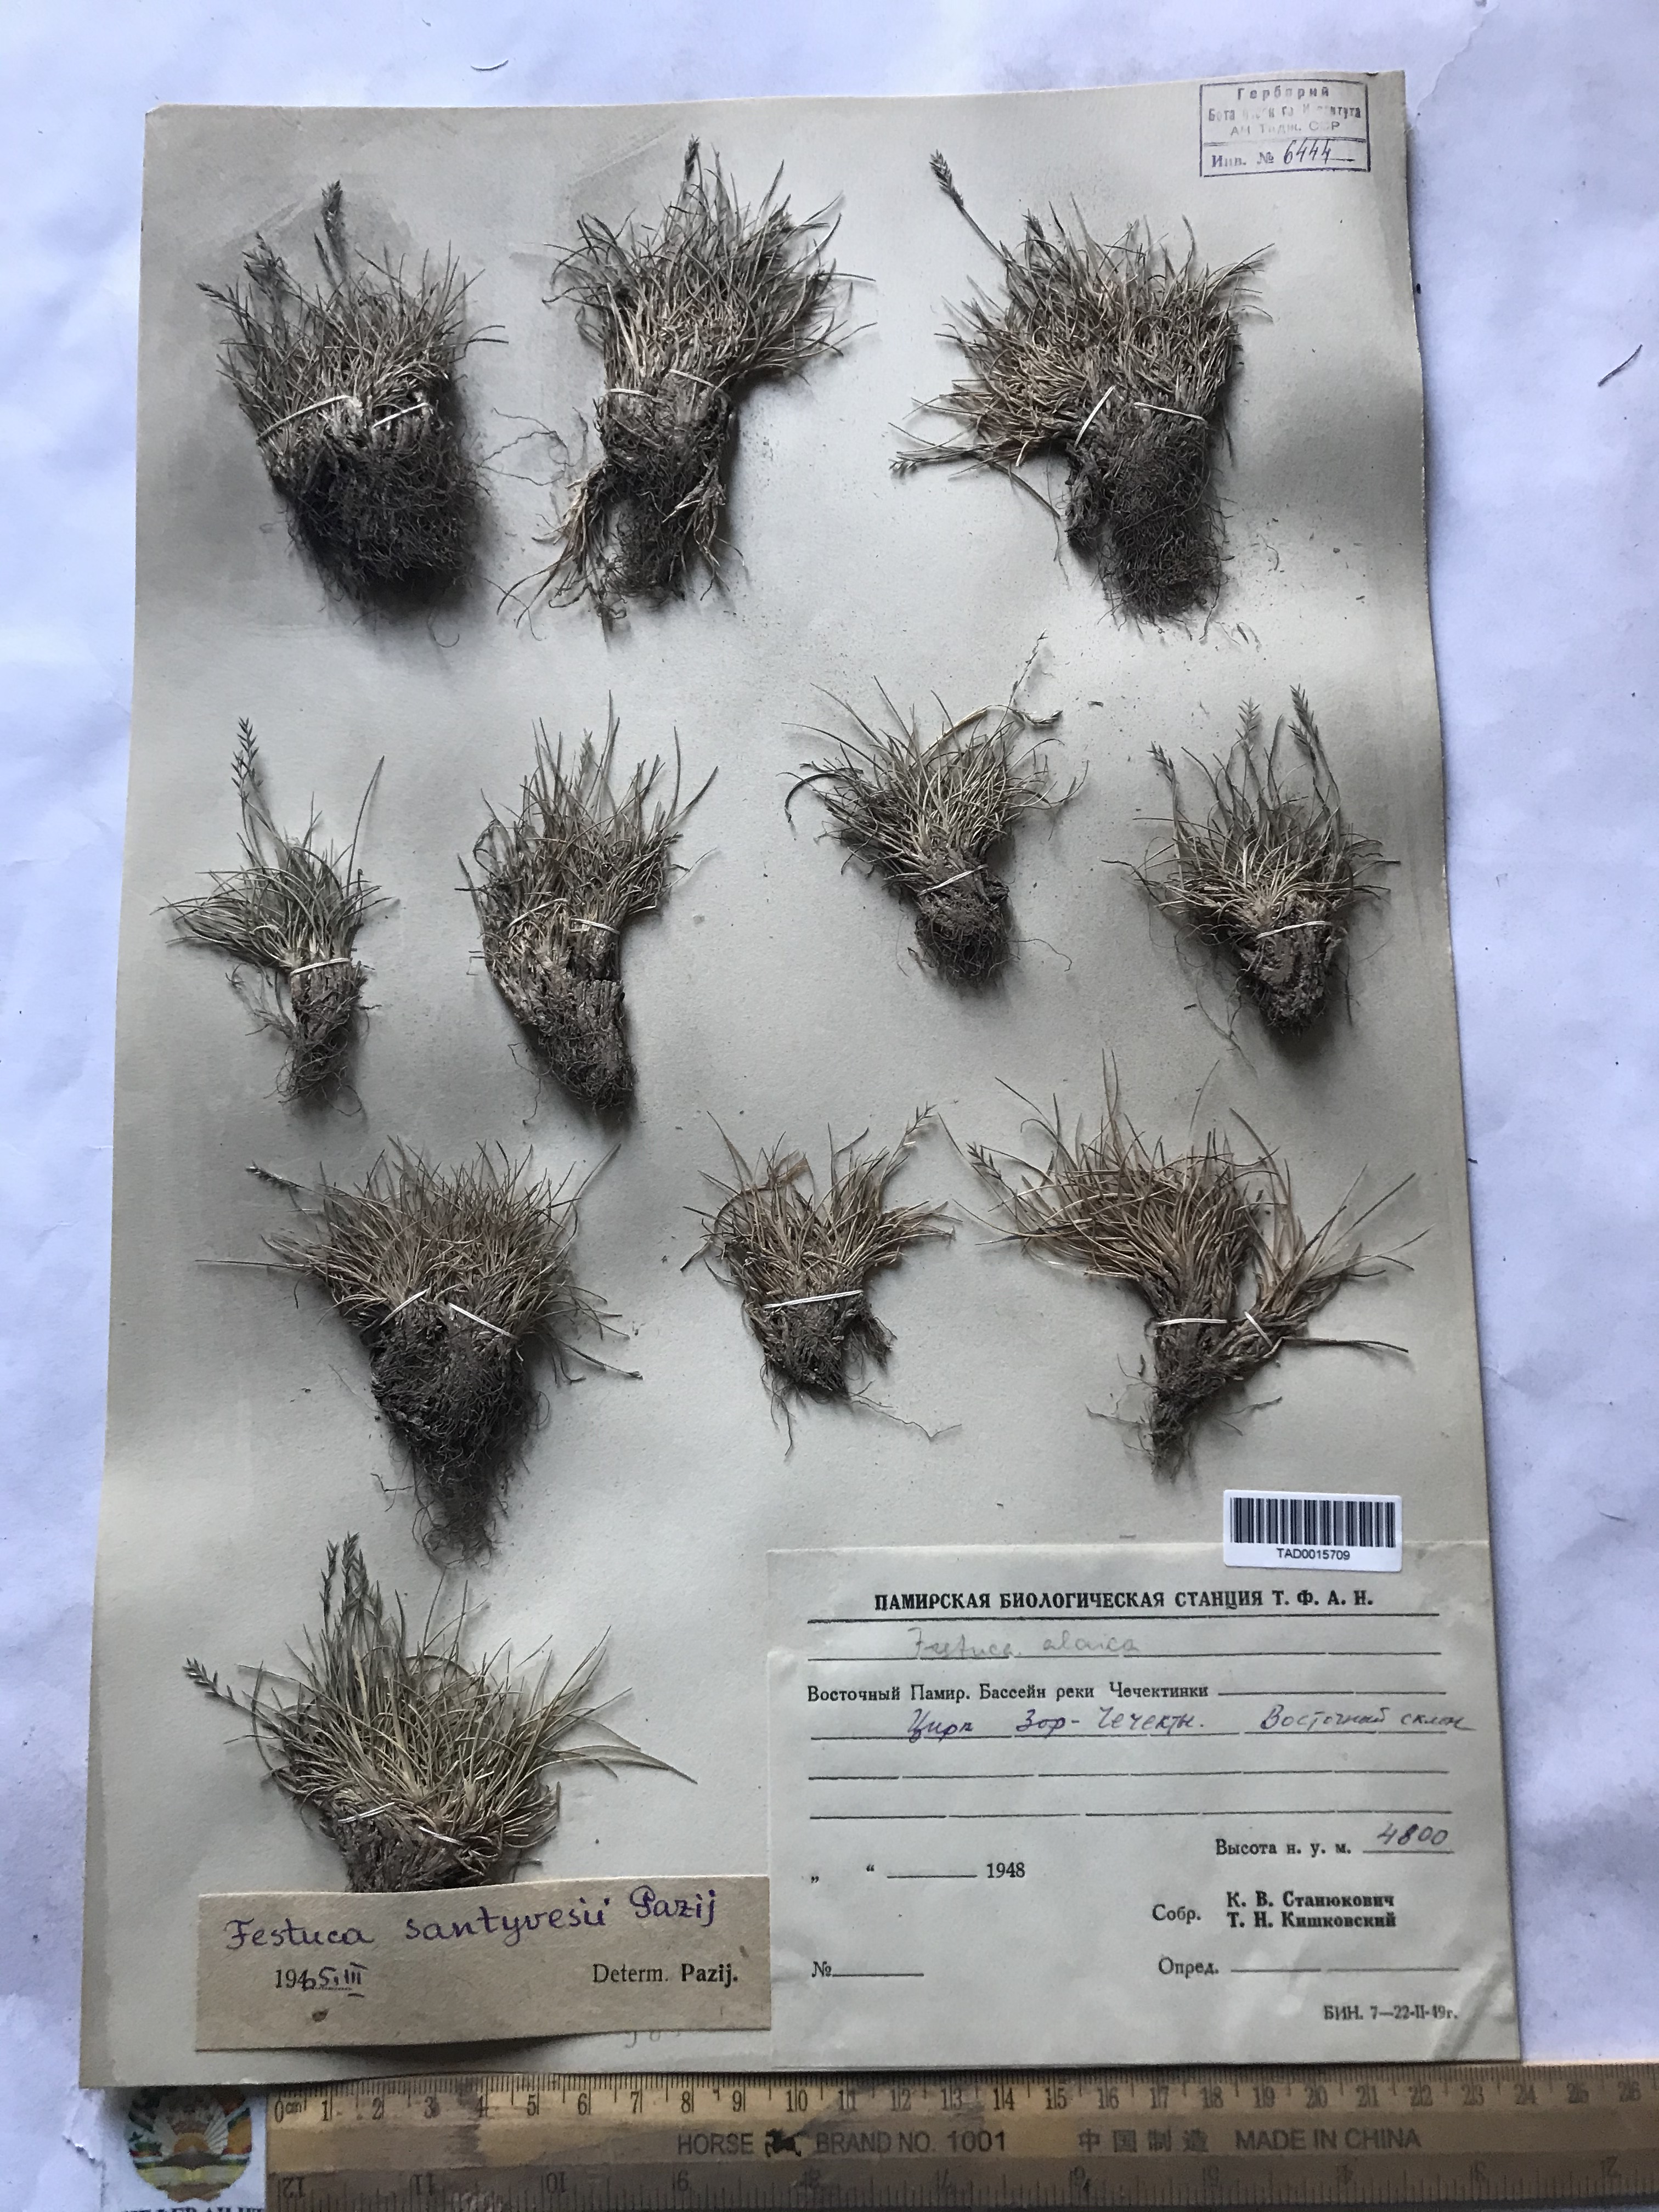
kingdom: Plantae
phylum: Tracheophyta
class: Liliopsida
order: Poales
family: Poaceae
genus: Festuca
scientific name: Festuca coelestis
